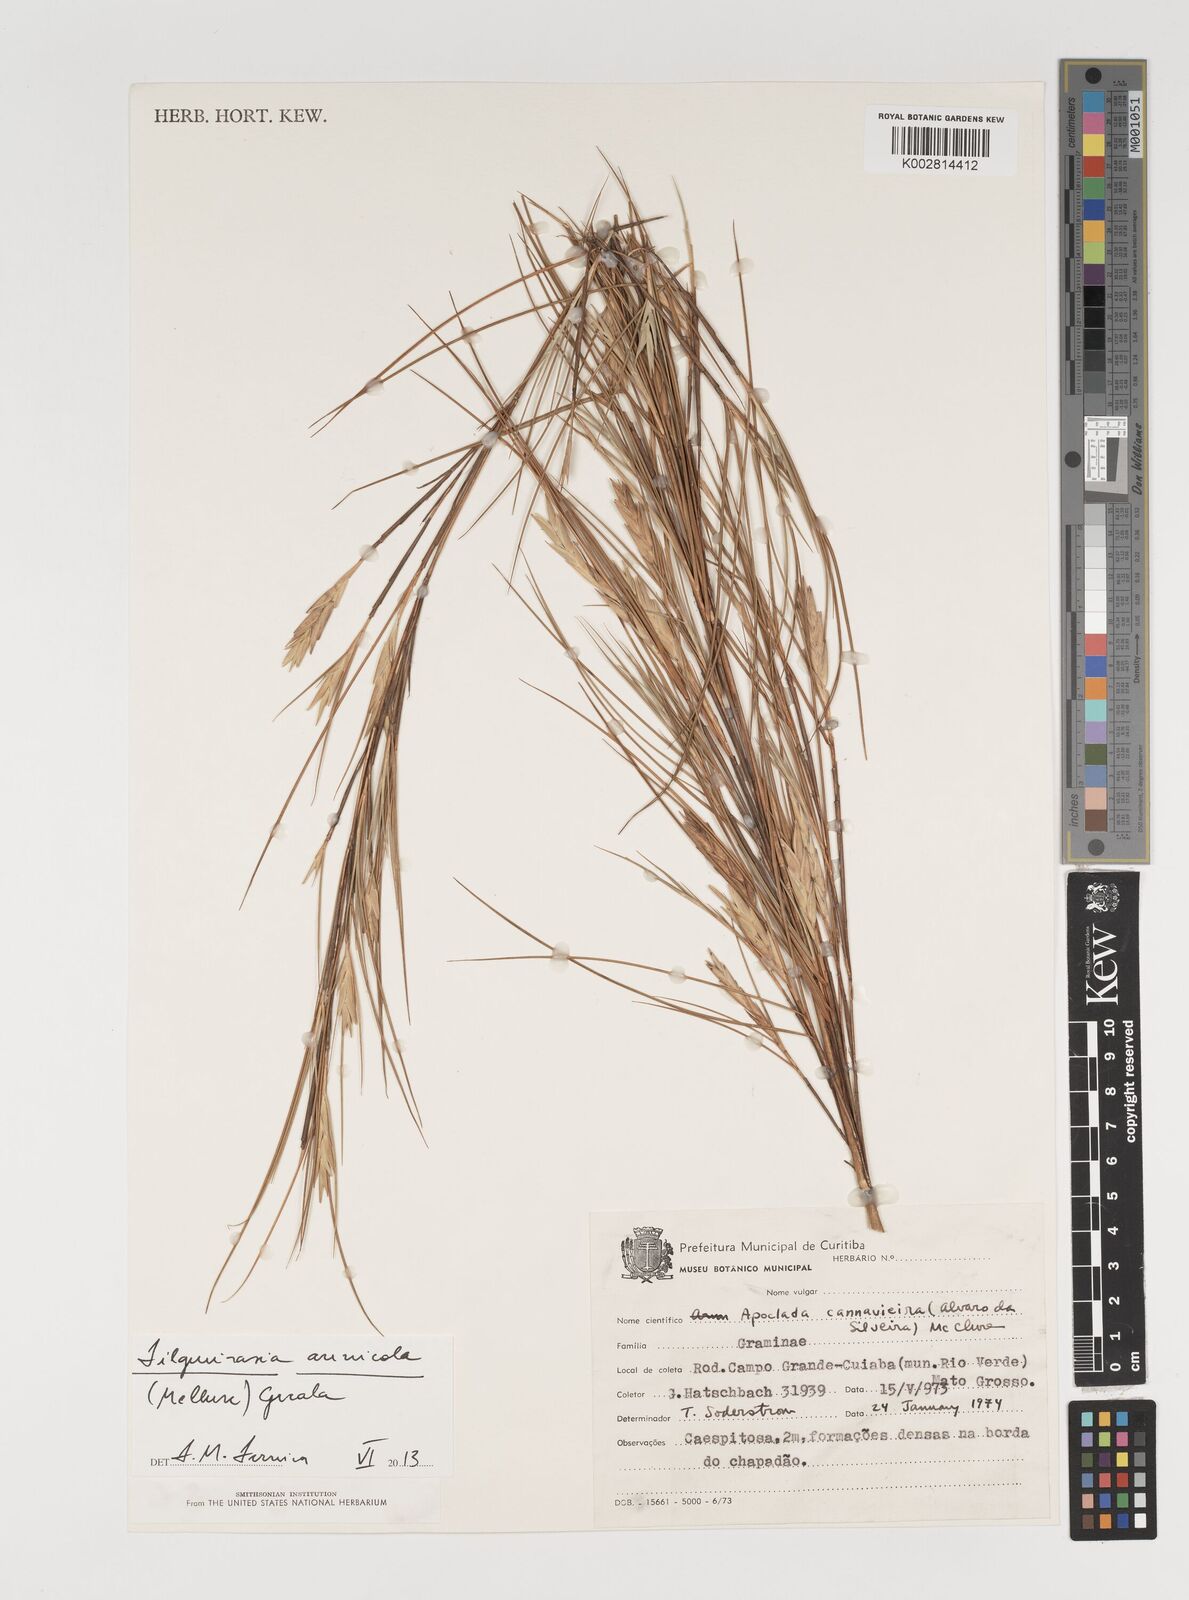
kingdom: Plantae
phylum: Tracheophyta
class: Liliopsida
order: Poales
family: Poaceae
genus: Elytrostachys
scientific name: Elytrostachys
